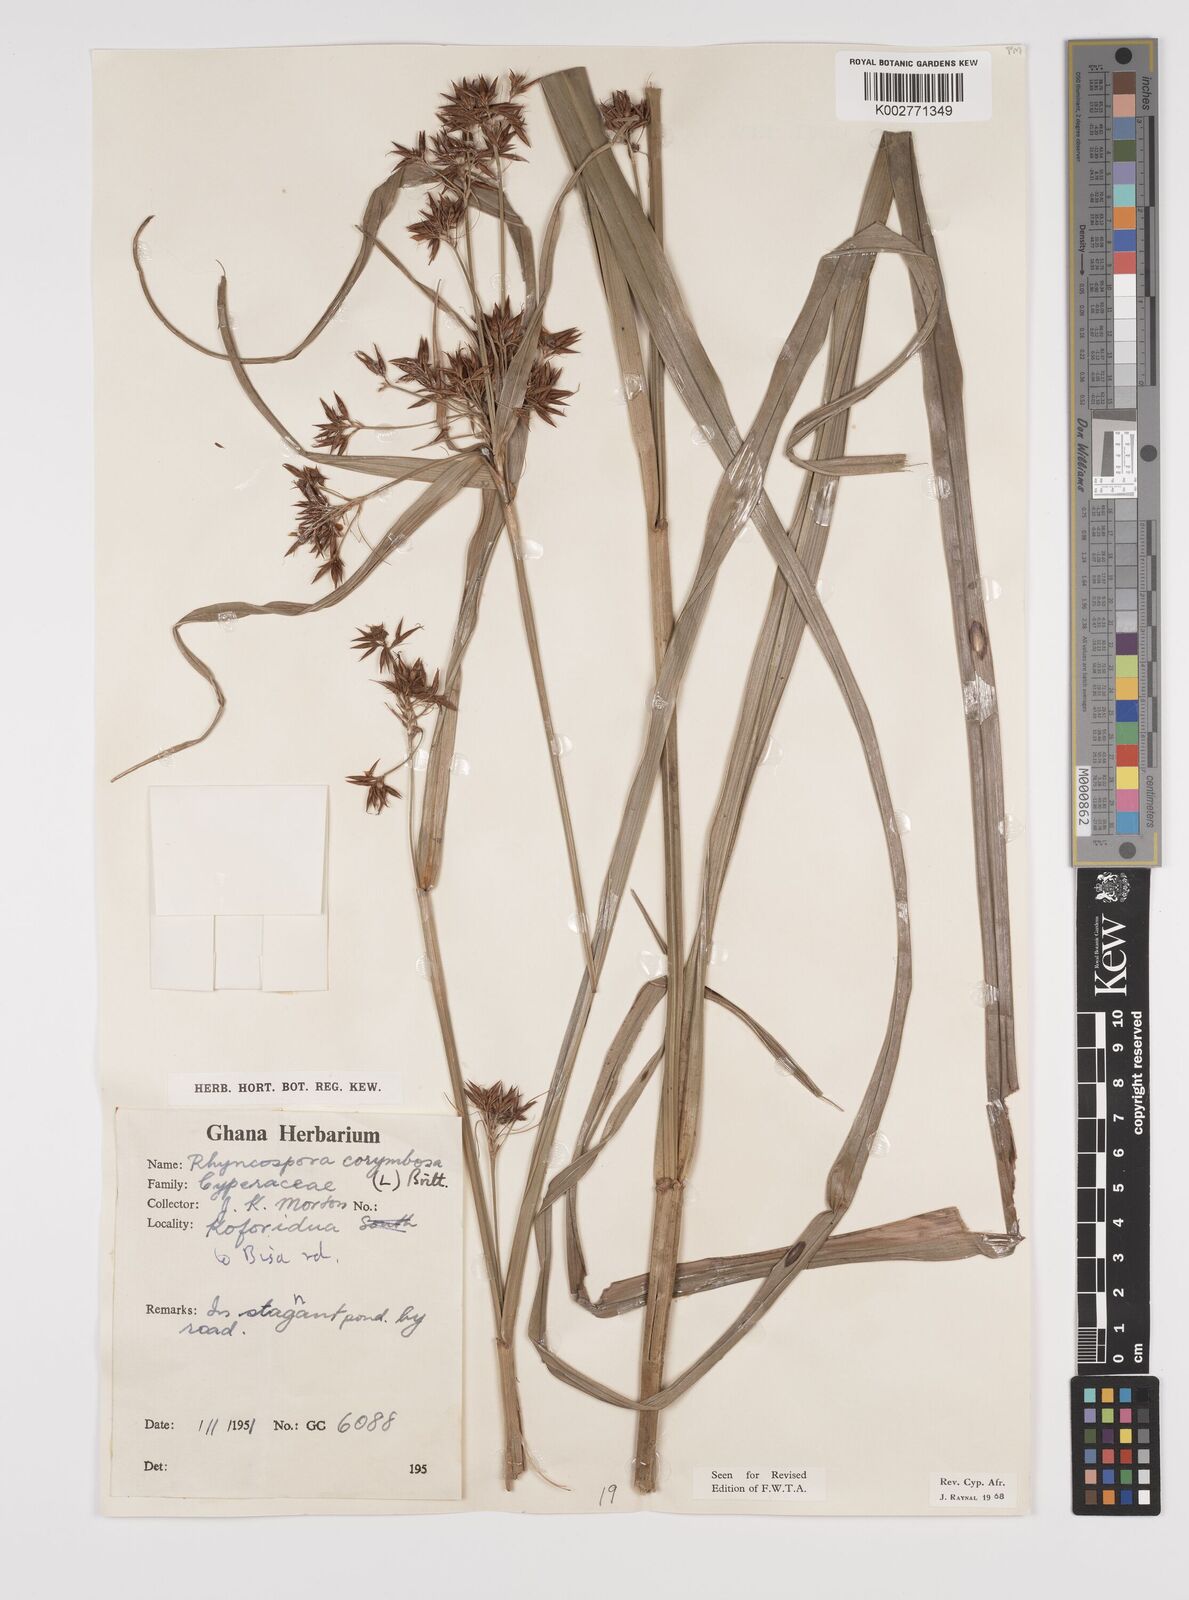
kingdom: Plantae
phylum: Tracheophyta
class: Liliopsida
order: Poales
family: Cyperaceae
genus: Rhynchospora
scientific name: Rhynchospora corymbosa
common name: Golden beak sedge
